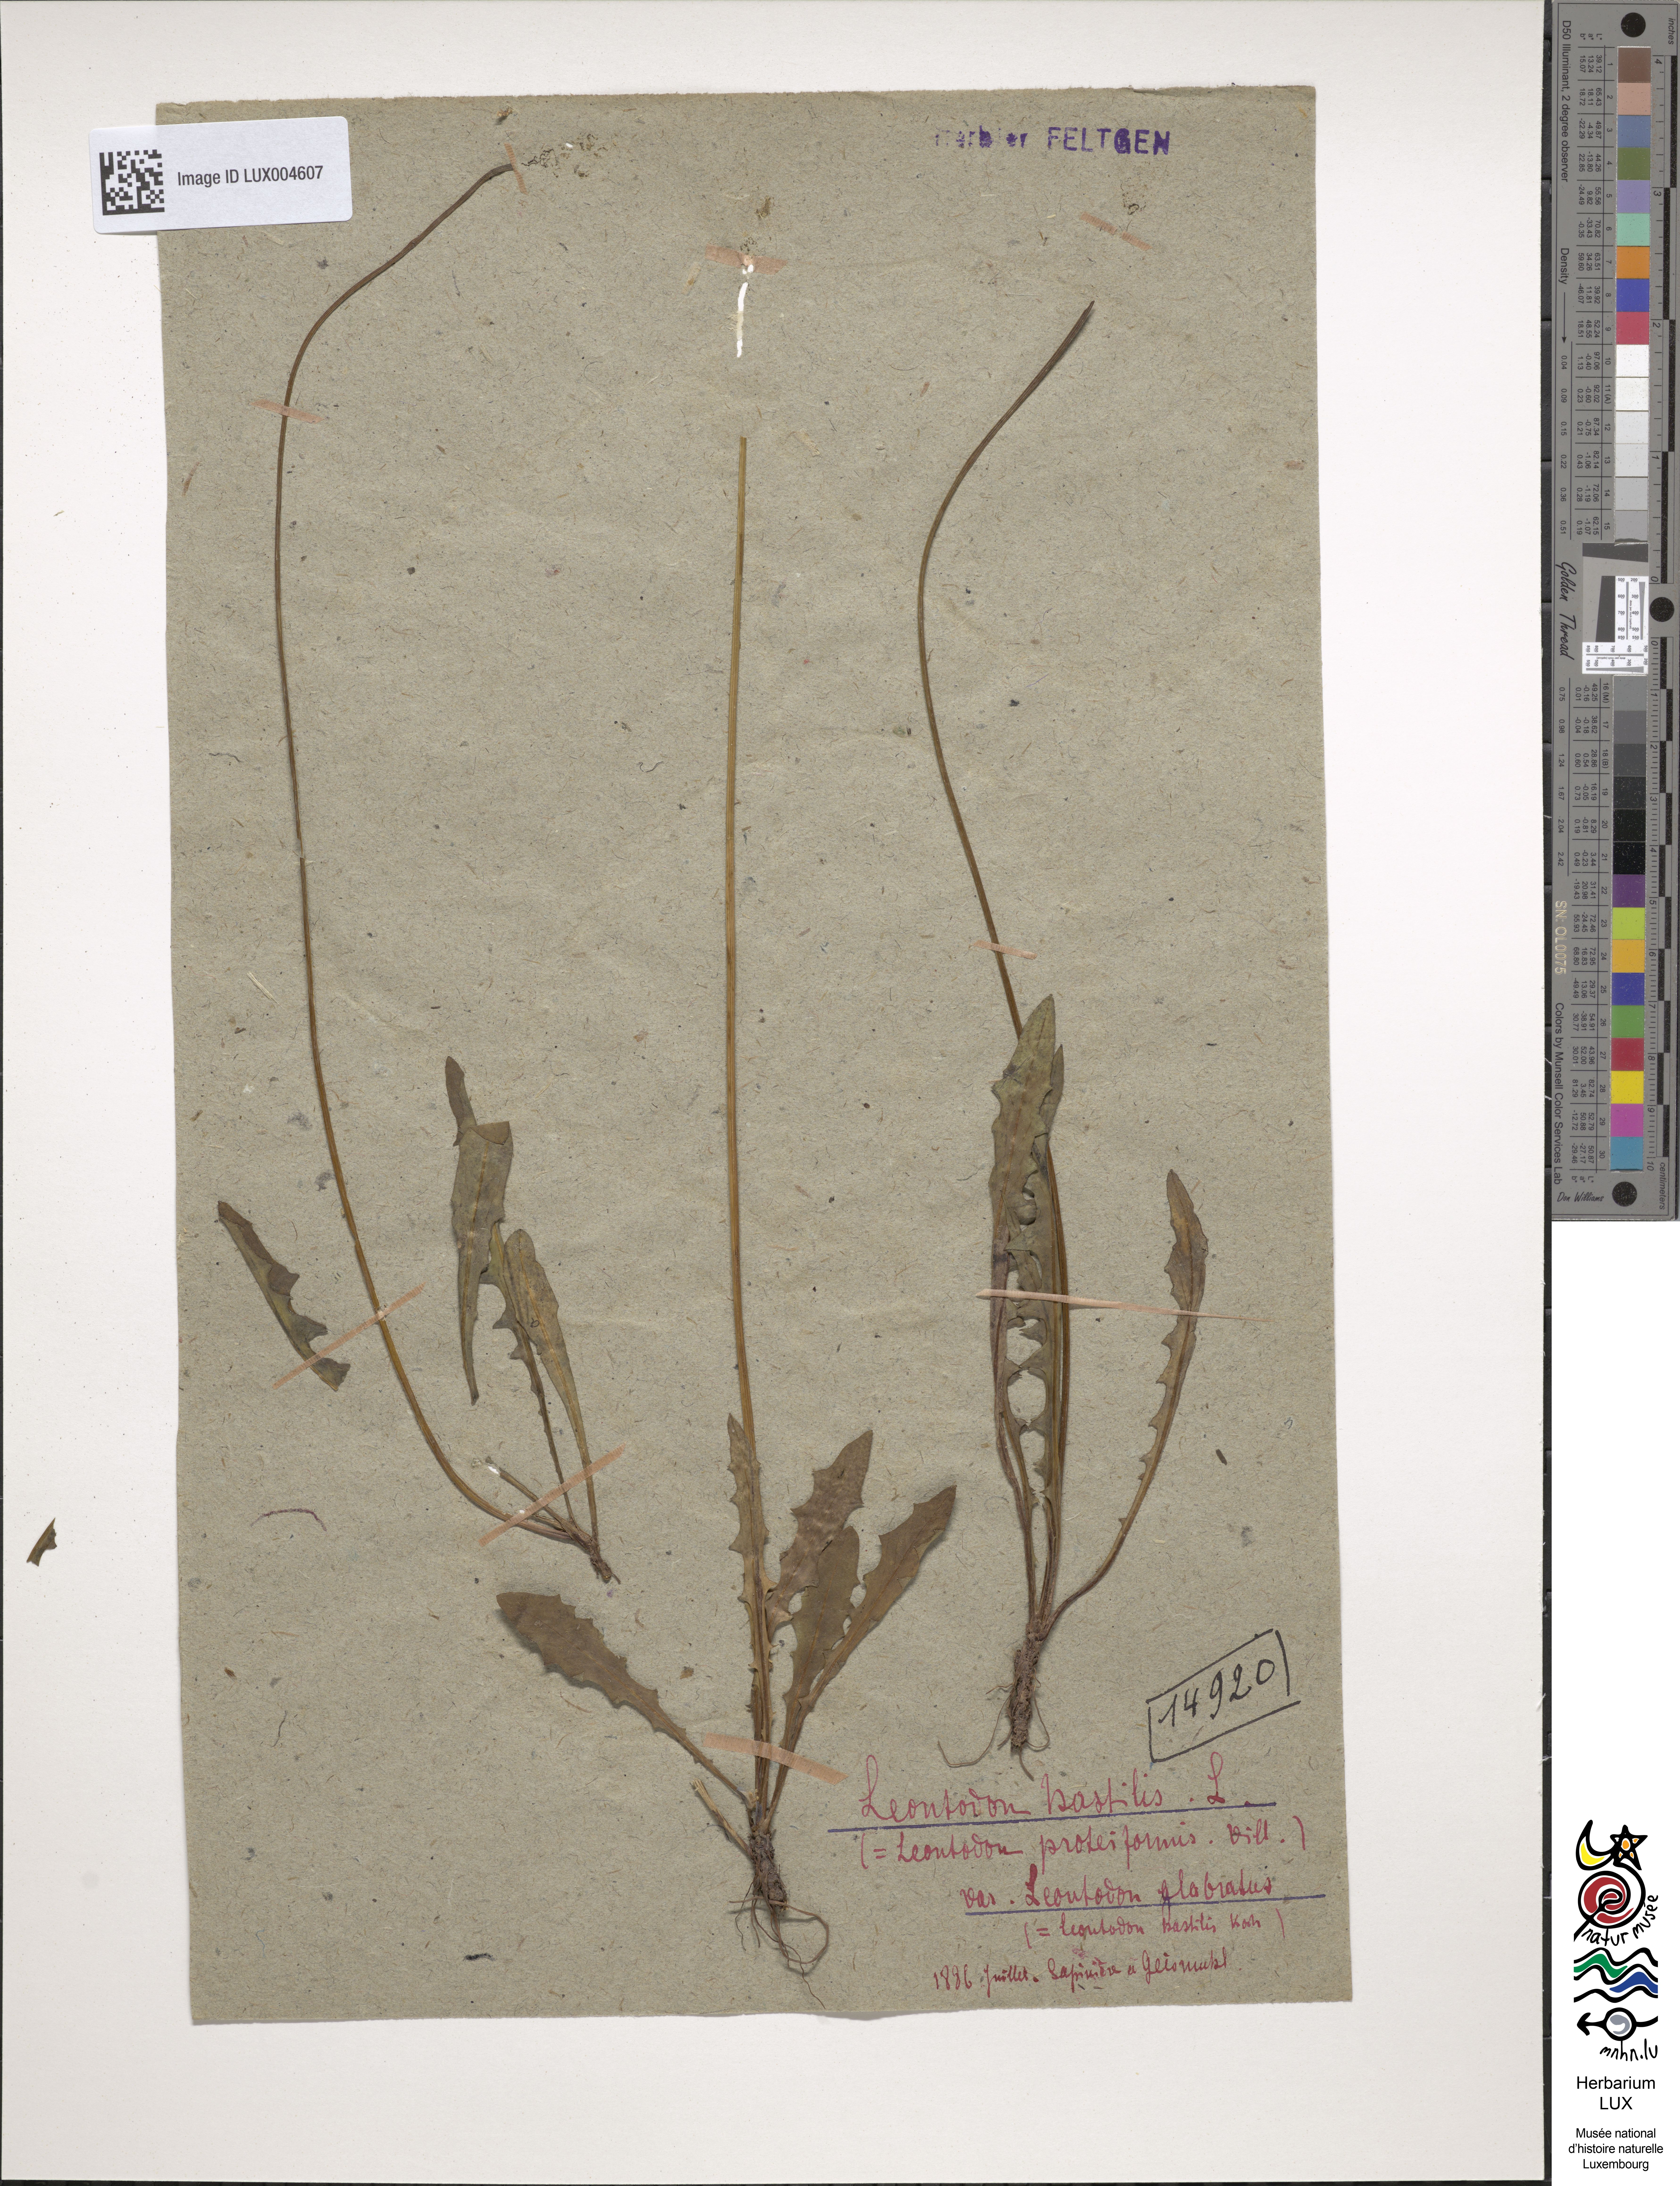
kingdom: Plantae
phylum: Tracheophyta
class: Magnoliopsida
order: Asterales
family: Asteraceae
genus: Leontodon
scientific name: Leontodon hispidus
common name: Rough hawkbit
